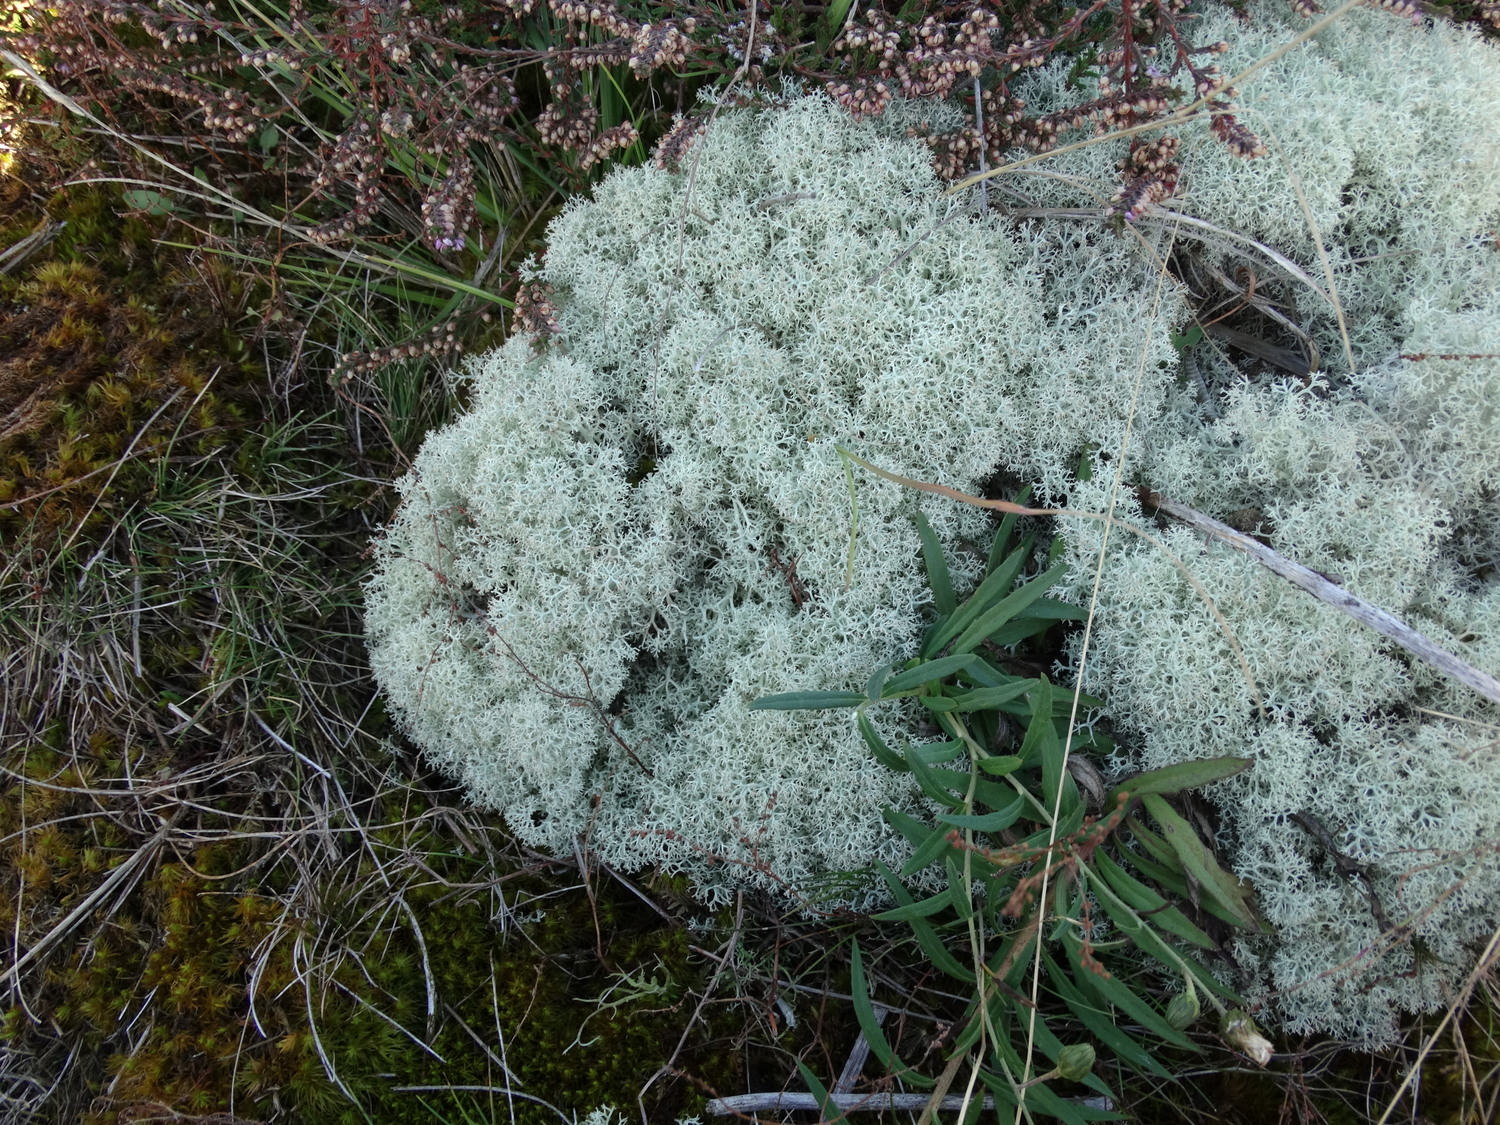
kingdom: Fungi
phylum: Ascomycota
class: Lecanoromycetes
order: Lecanorales
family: Cladoniaceae
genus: Cladonia
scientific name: Cladonia portentosa
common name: hede-rensdyrlav
